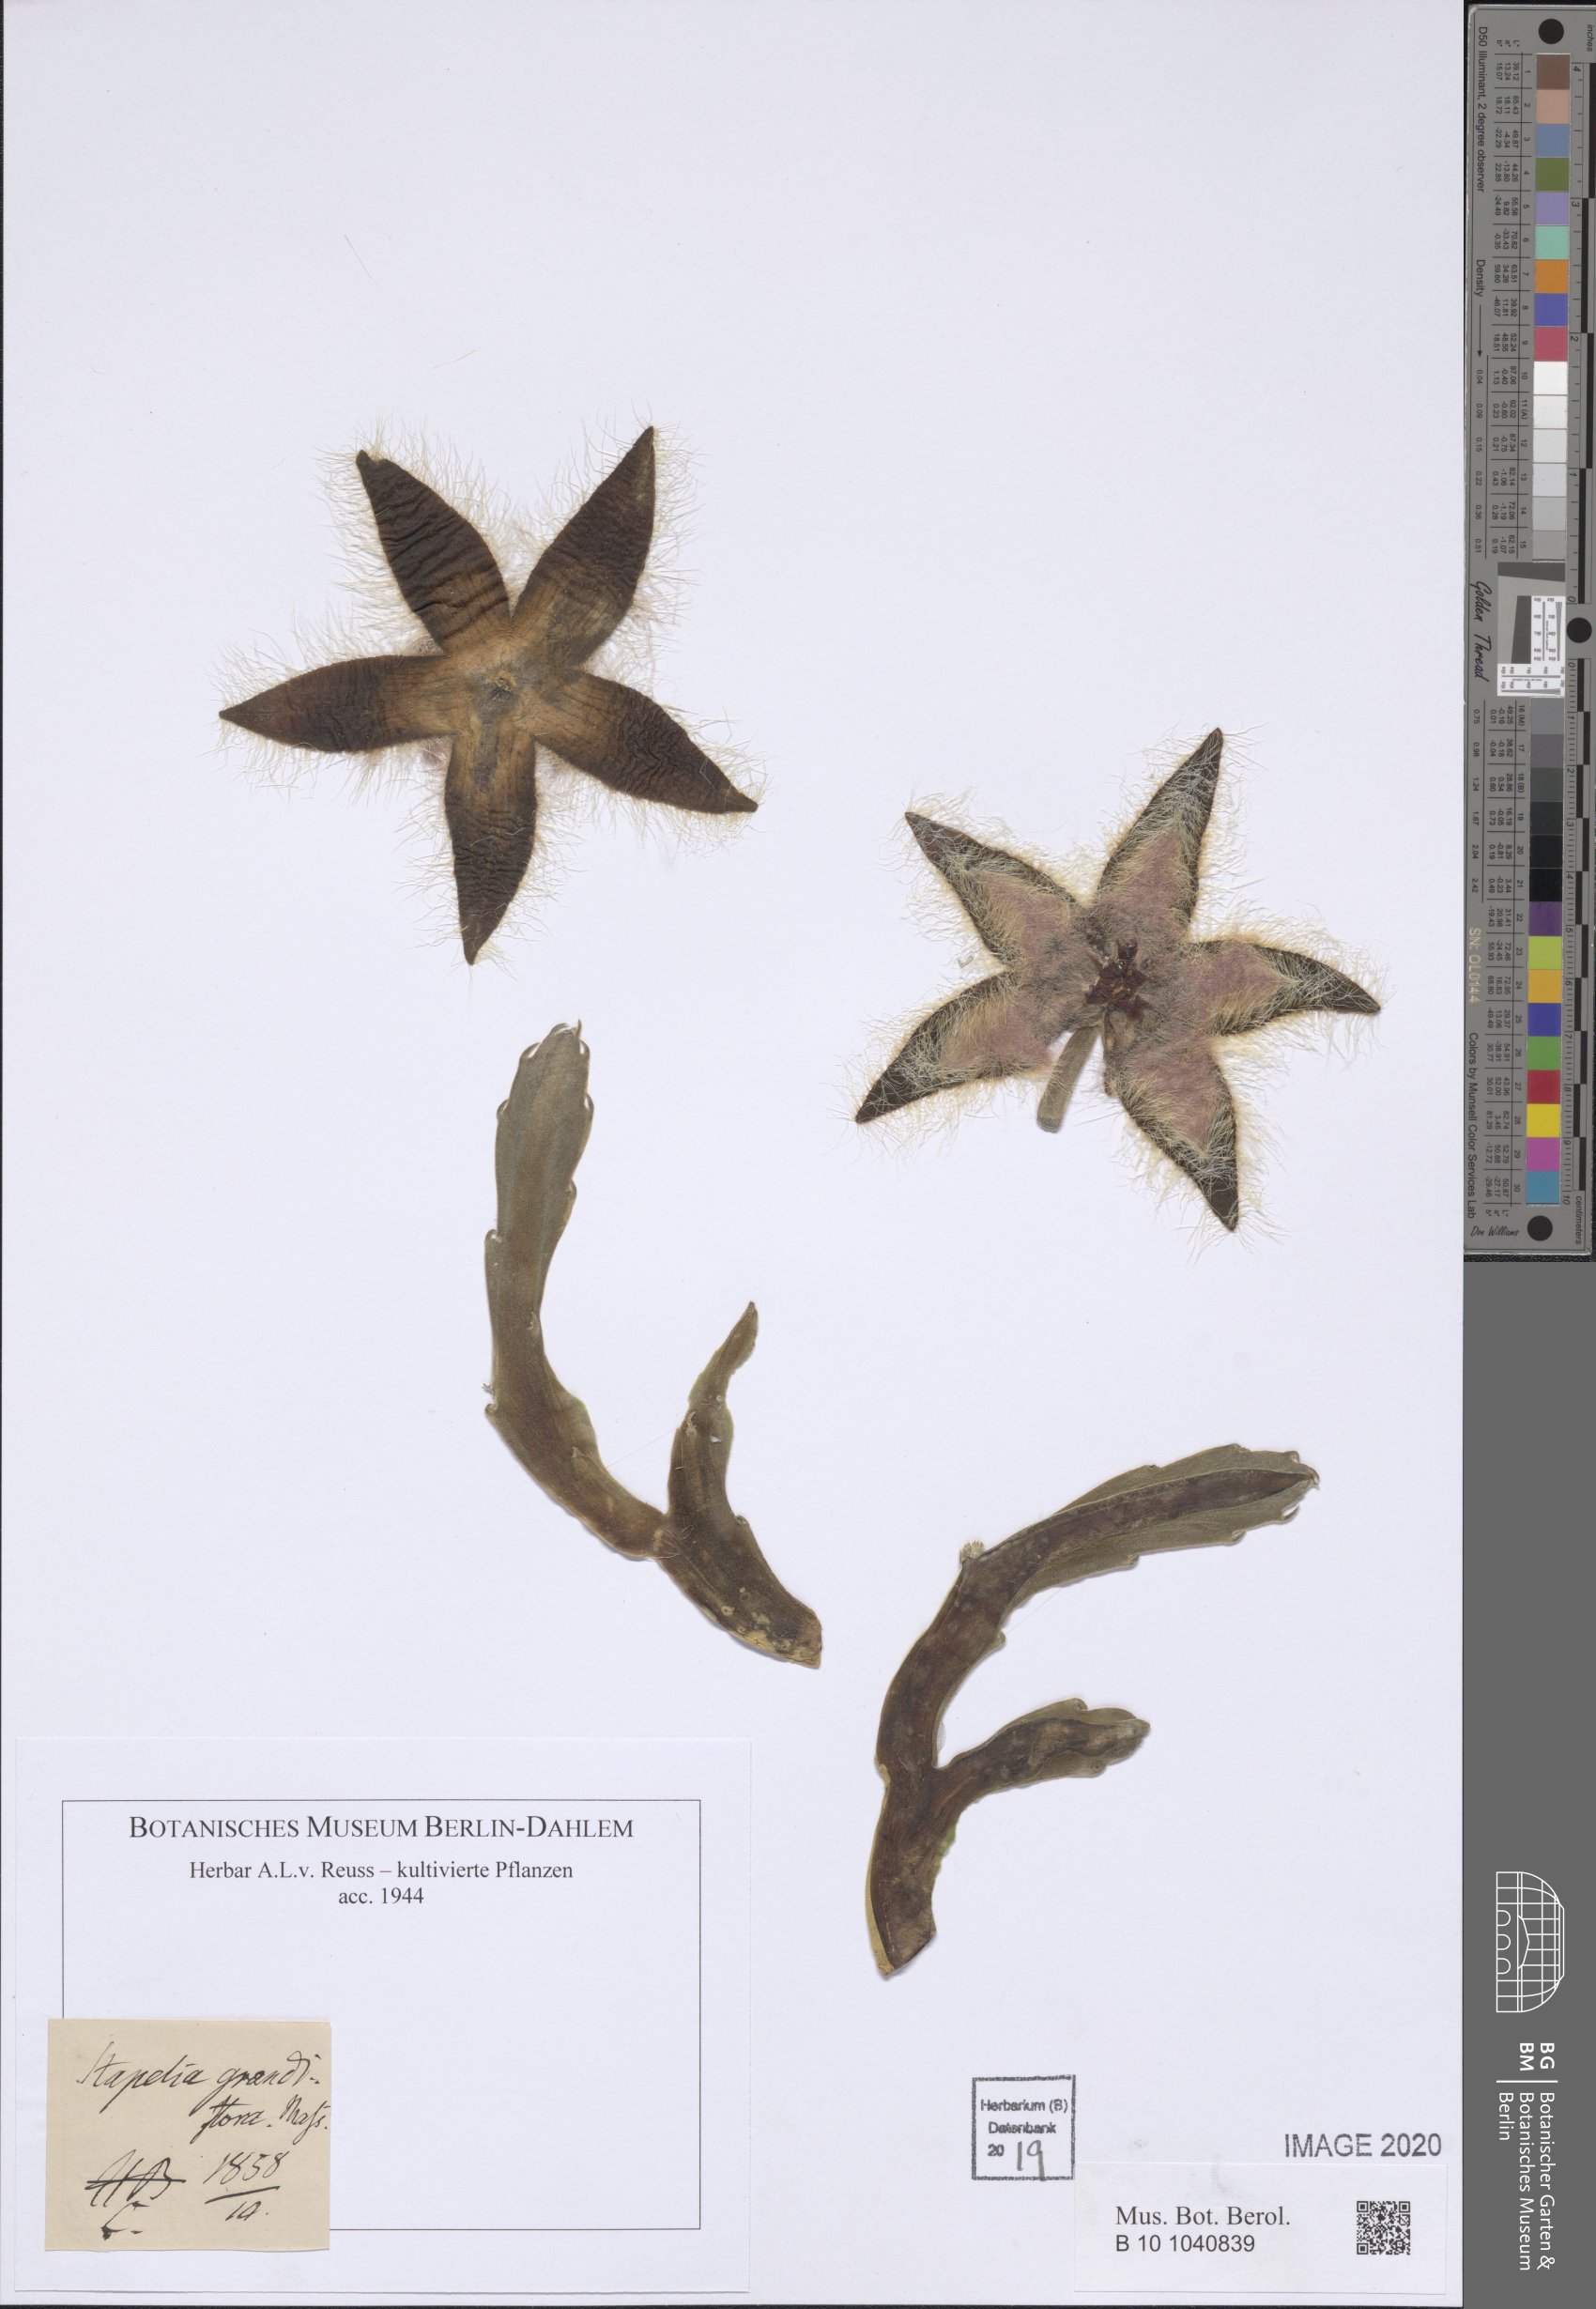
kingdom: Plantae
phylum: Tracheophyta
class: Magnoliopsida
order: Gentianales
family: Apocynaceae
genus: Ceropegia
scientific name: Ceropegia grandiflora
